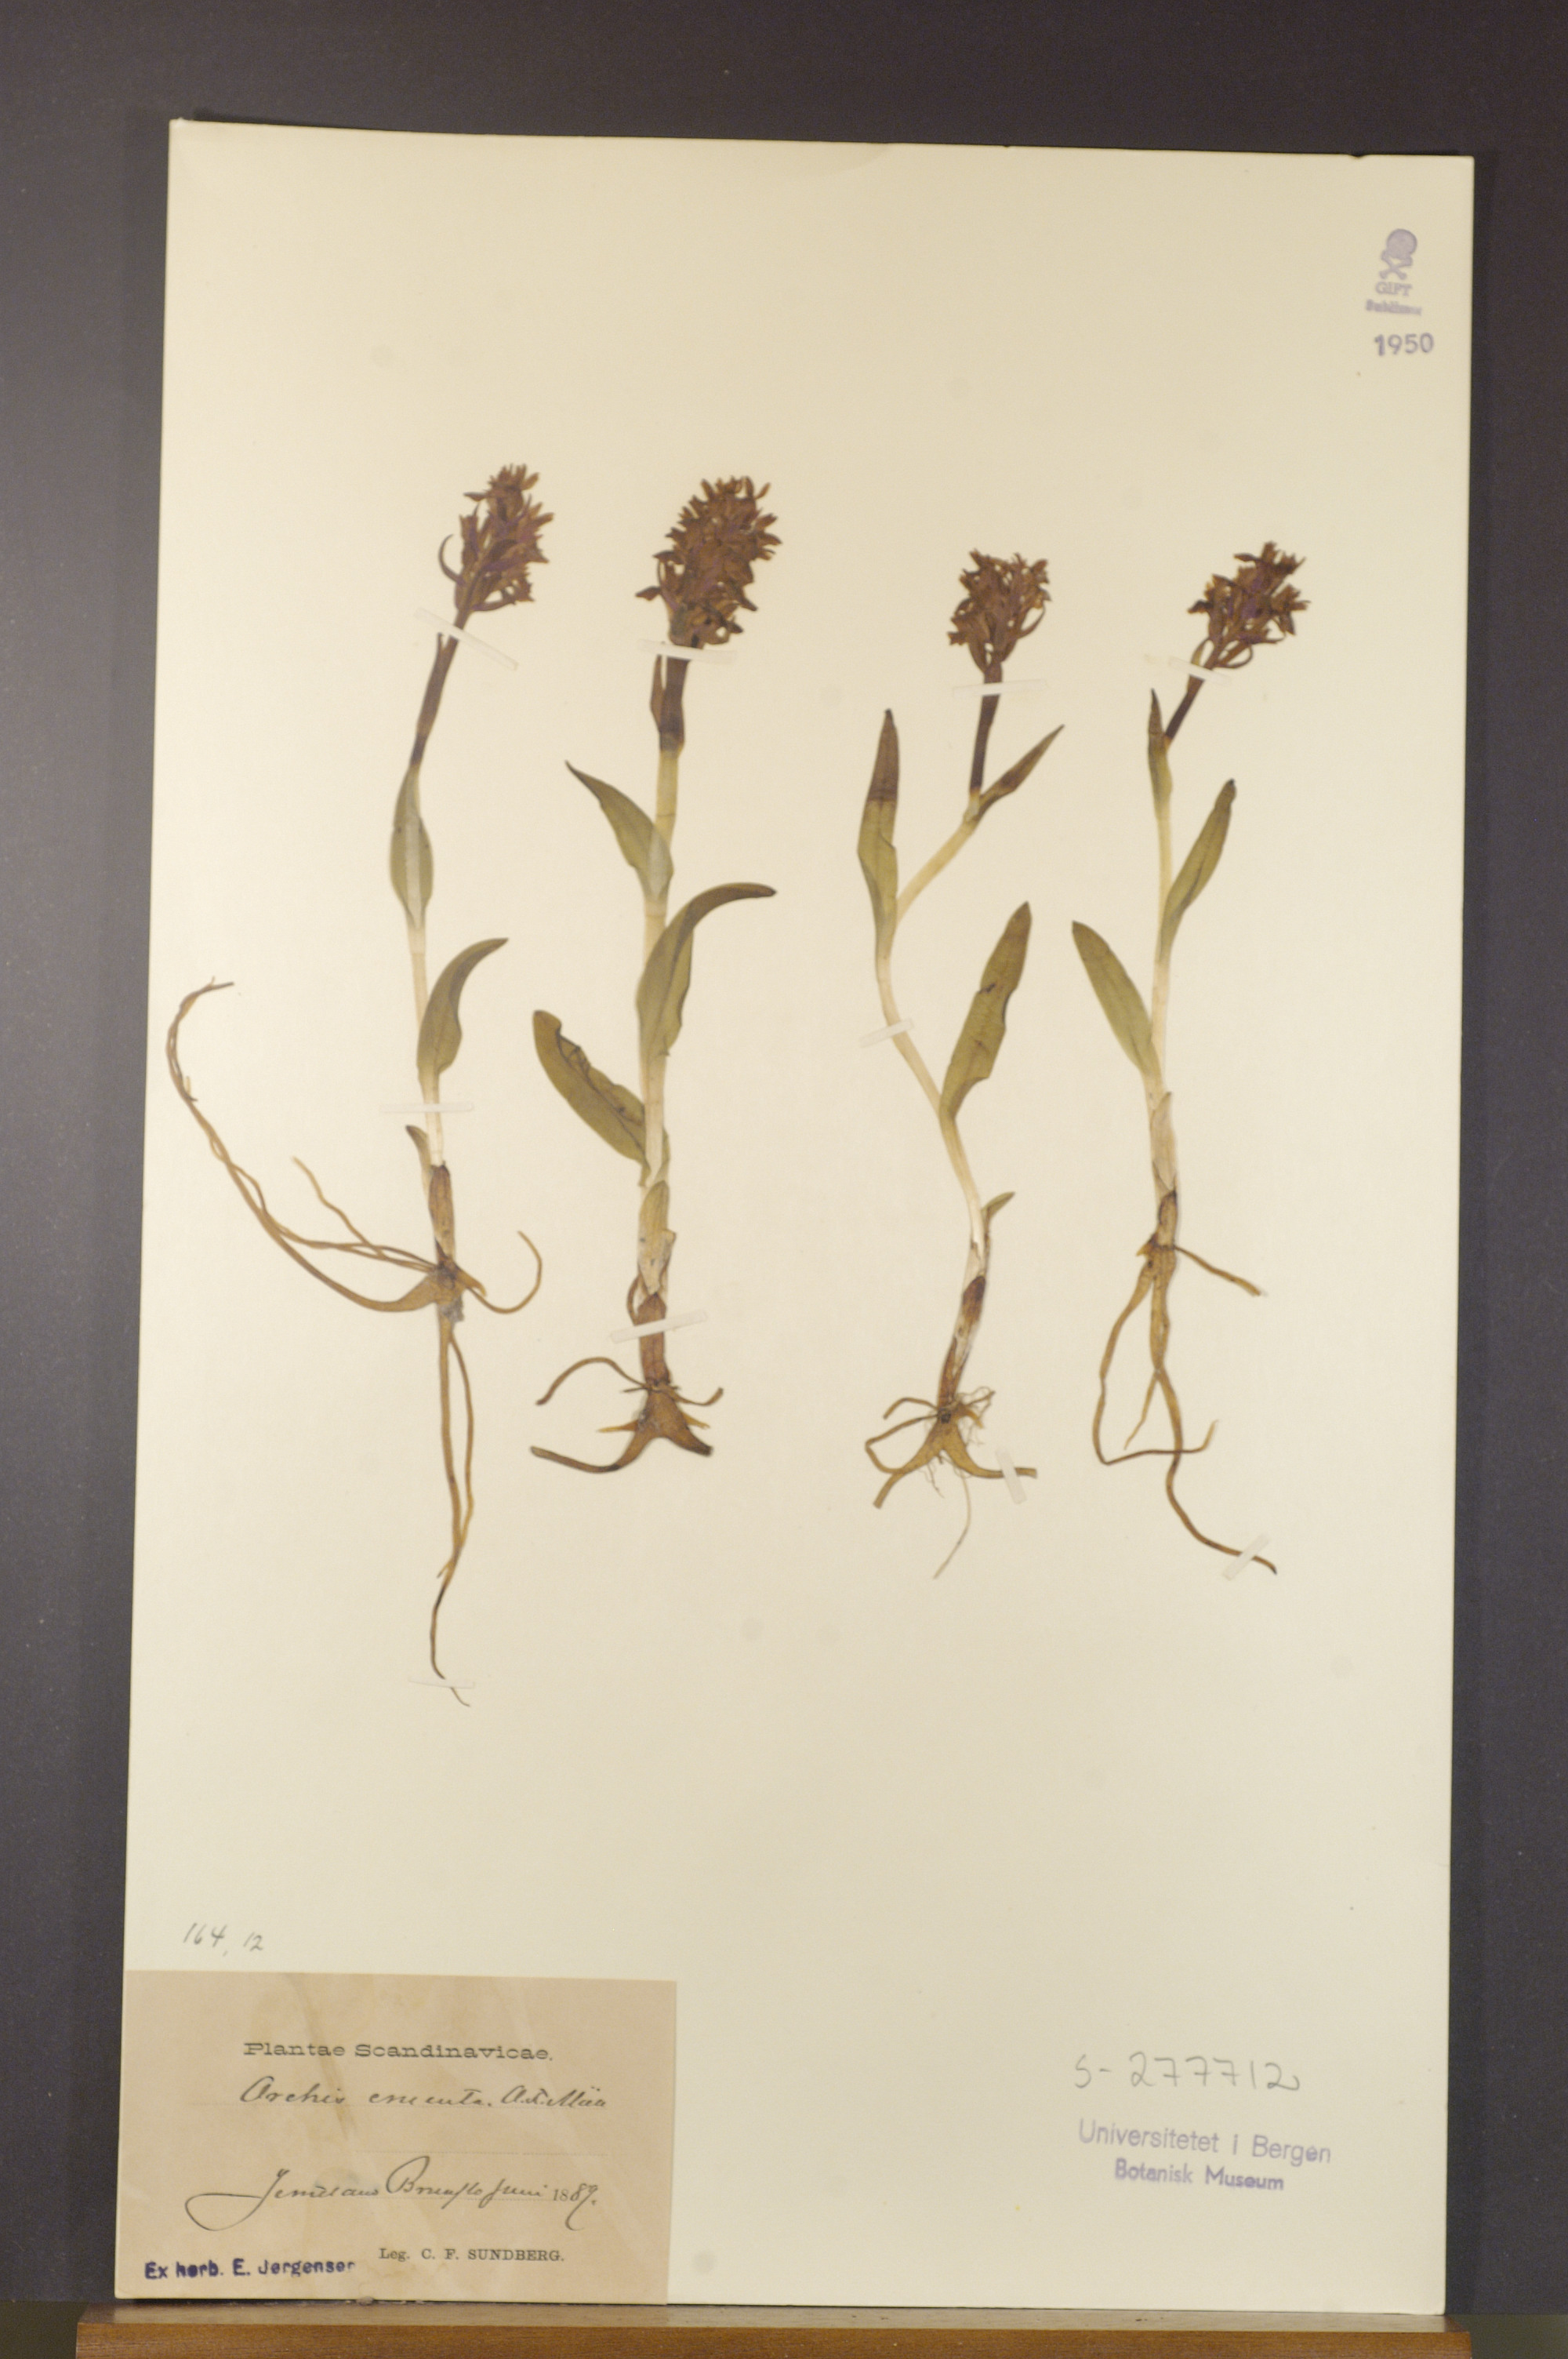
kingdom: Plantae
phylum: Tracheophyta
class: Liliopsida
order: Asparagales
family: Orchidaceae
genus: Dactylorhiza
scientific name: Dactylorhiza incarnata
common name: Early marsh-orchid
